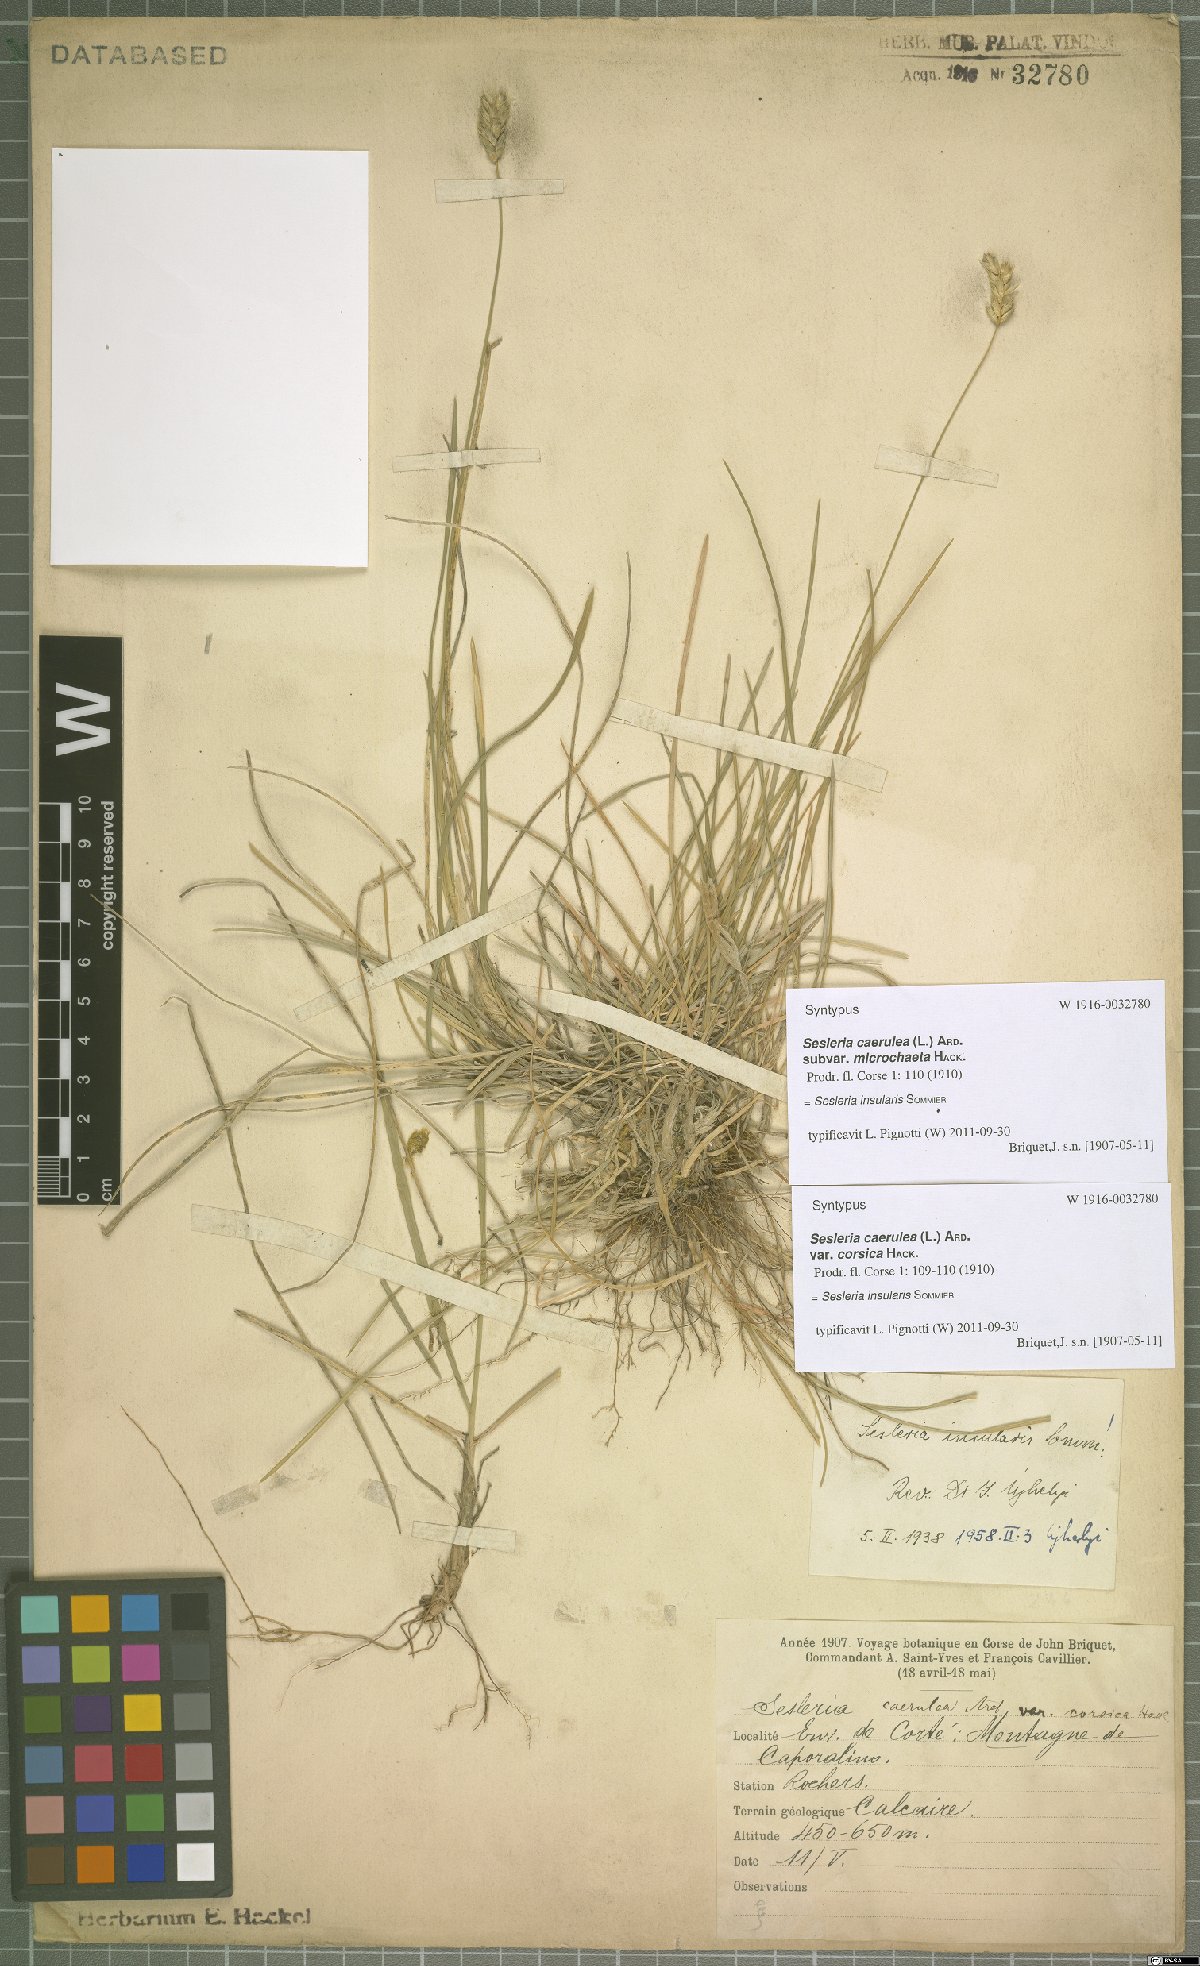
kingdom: Plantae
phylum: Tracheophyta
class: Liliopsida
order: Poales
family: Poaceae
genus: Sesleria
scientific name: Sesleria insularis
